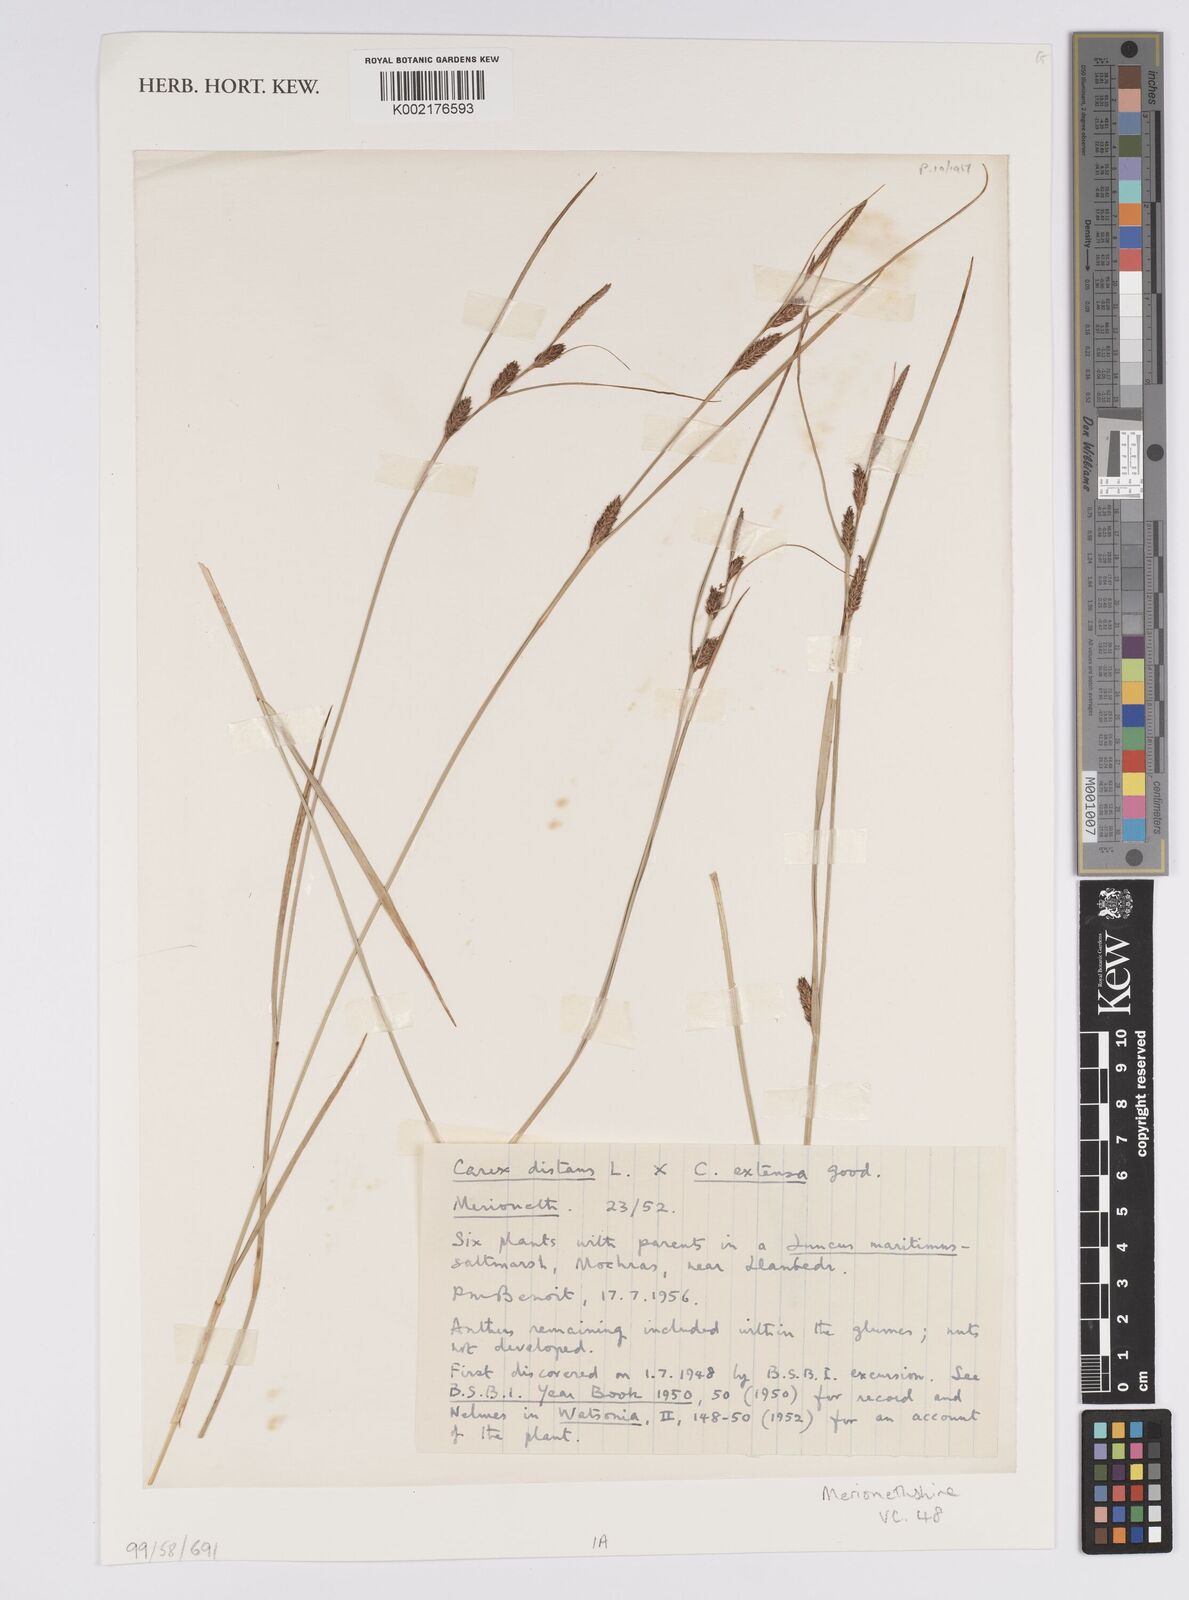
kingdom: Plantae
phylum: Tracheophyta
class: Liliopsida
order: Poales
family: Cyperaceae
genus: Carex
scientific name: Carex distans
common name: Distant sedge
